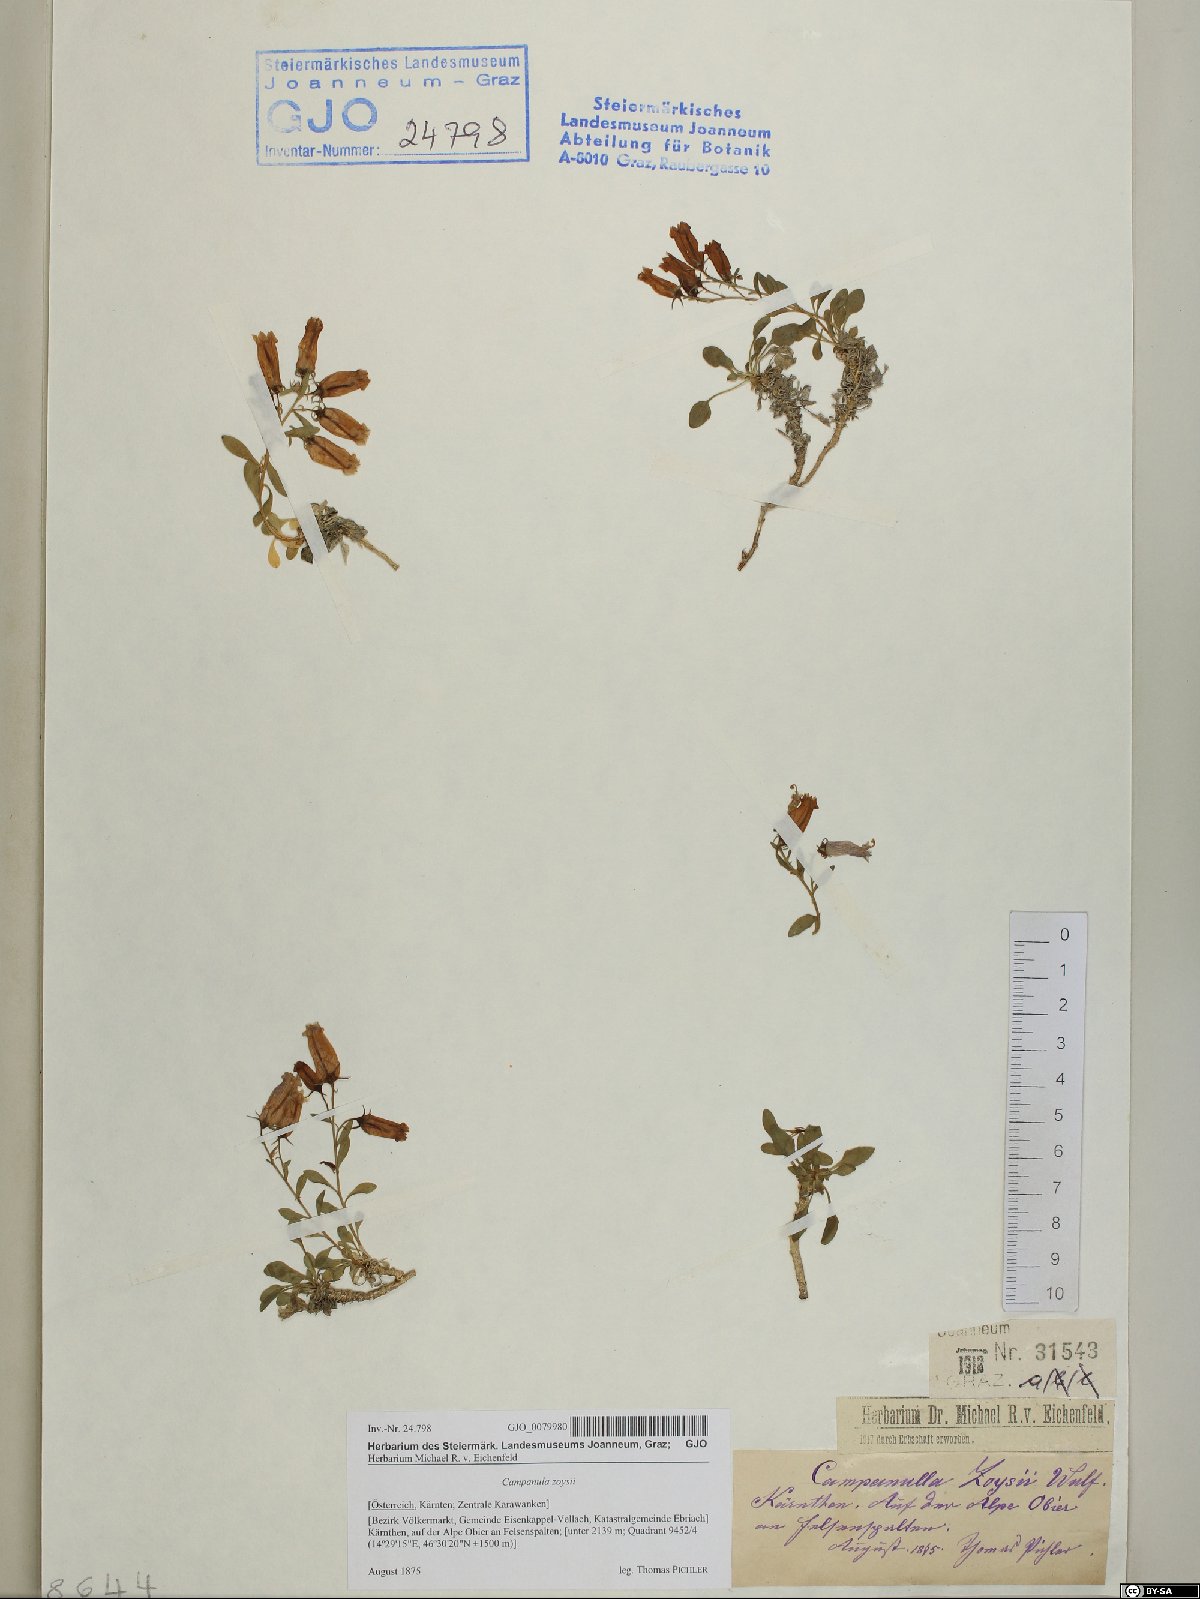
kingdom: Plantae
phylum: Tracheophyta
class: Magnoliopsida
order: Asterales
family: Campanulaceae
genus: Favratia
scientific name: Favratia zoysii
